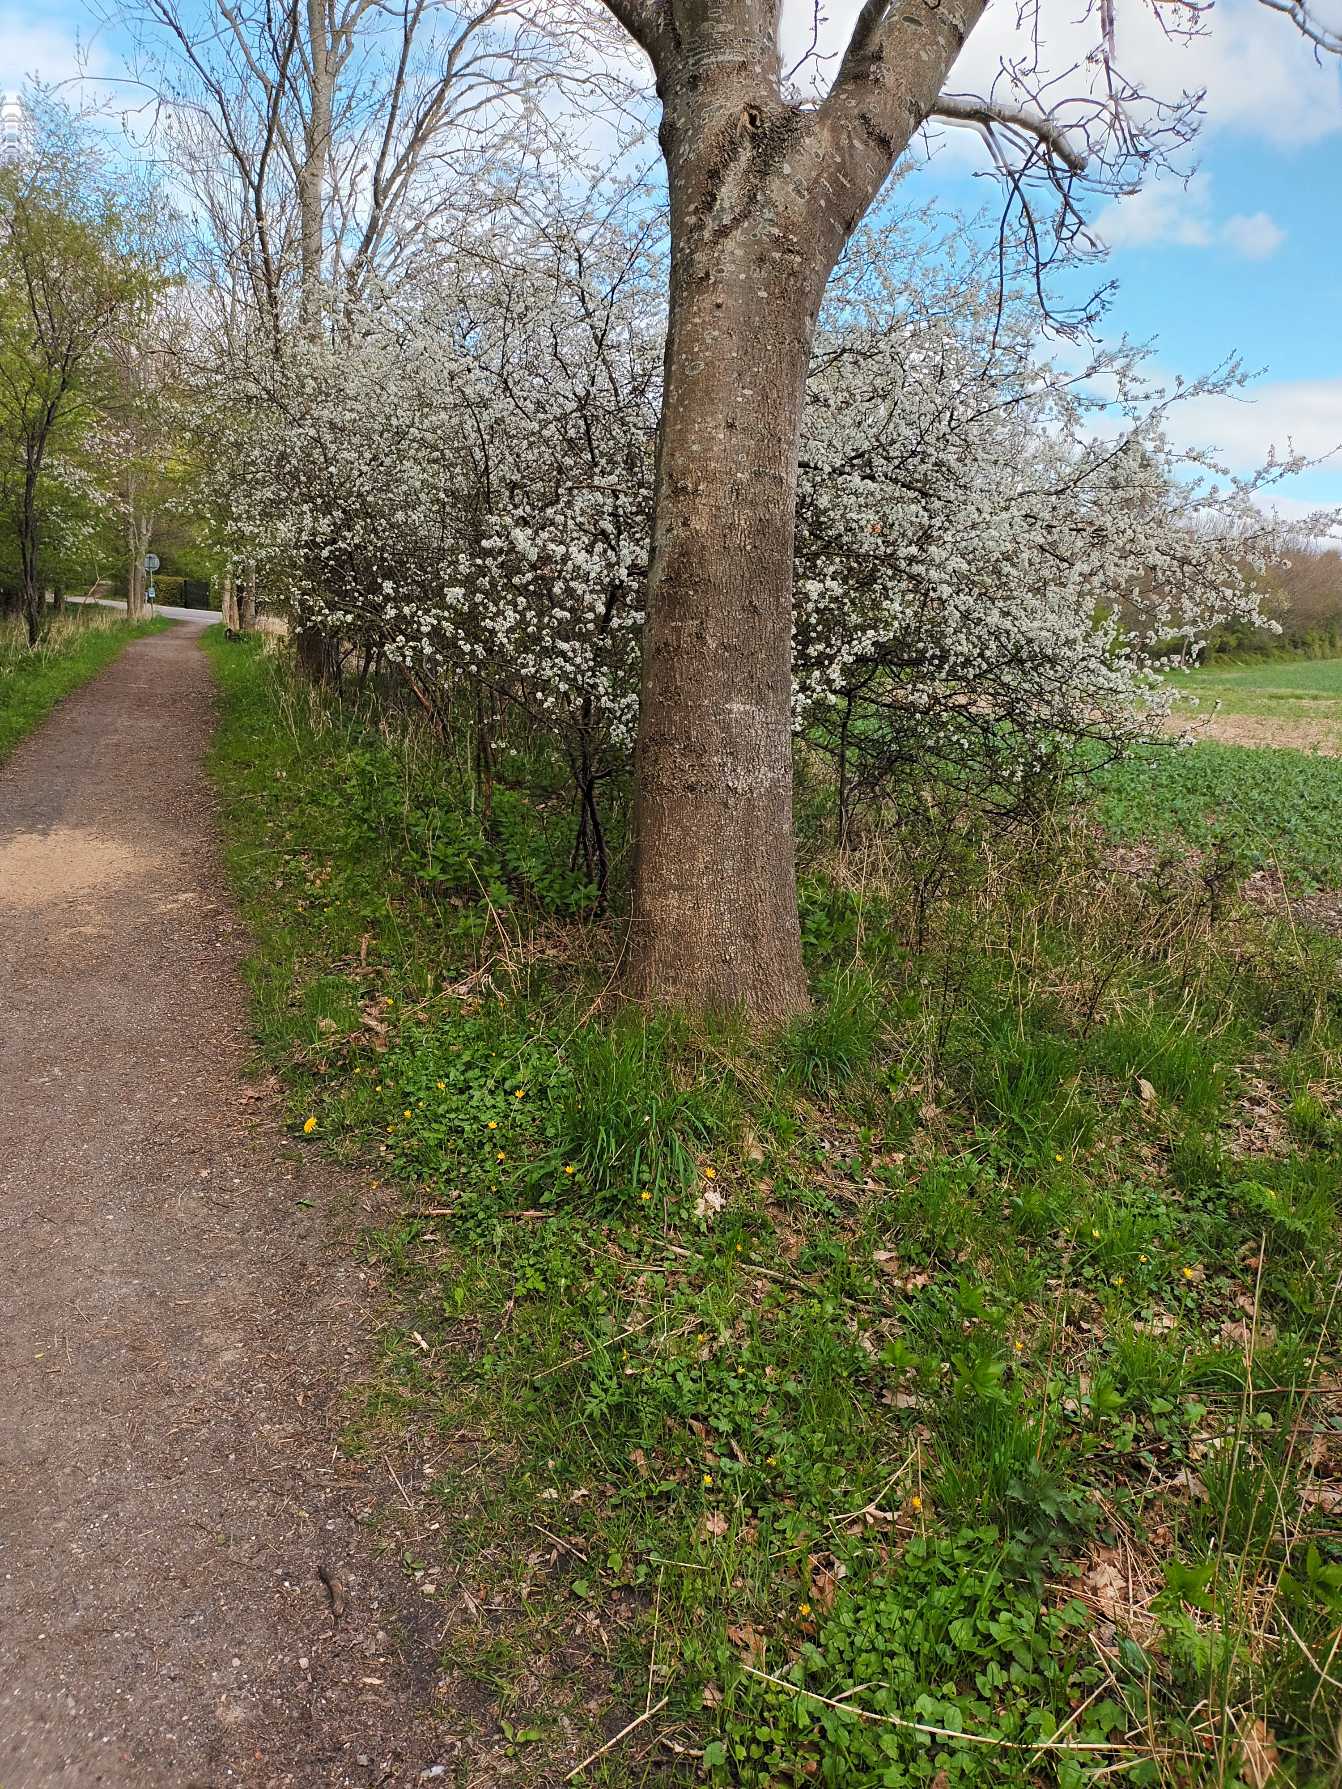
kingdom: Plantae
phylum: Tracheophyta
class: Magnoliopsida
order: Rosales
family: Rosaceae
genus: Prunus
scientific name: Prunus spinosa
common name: Slåen
